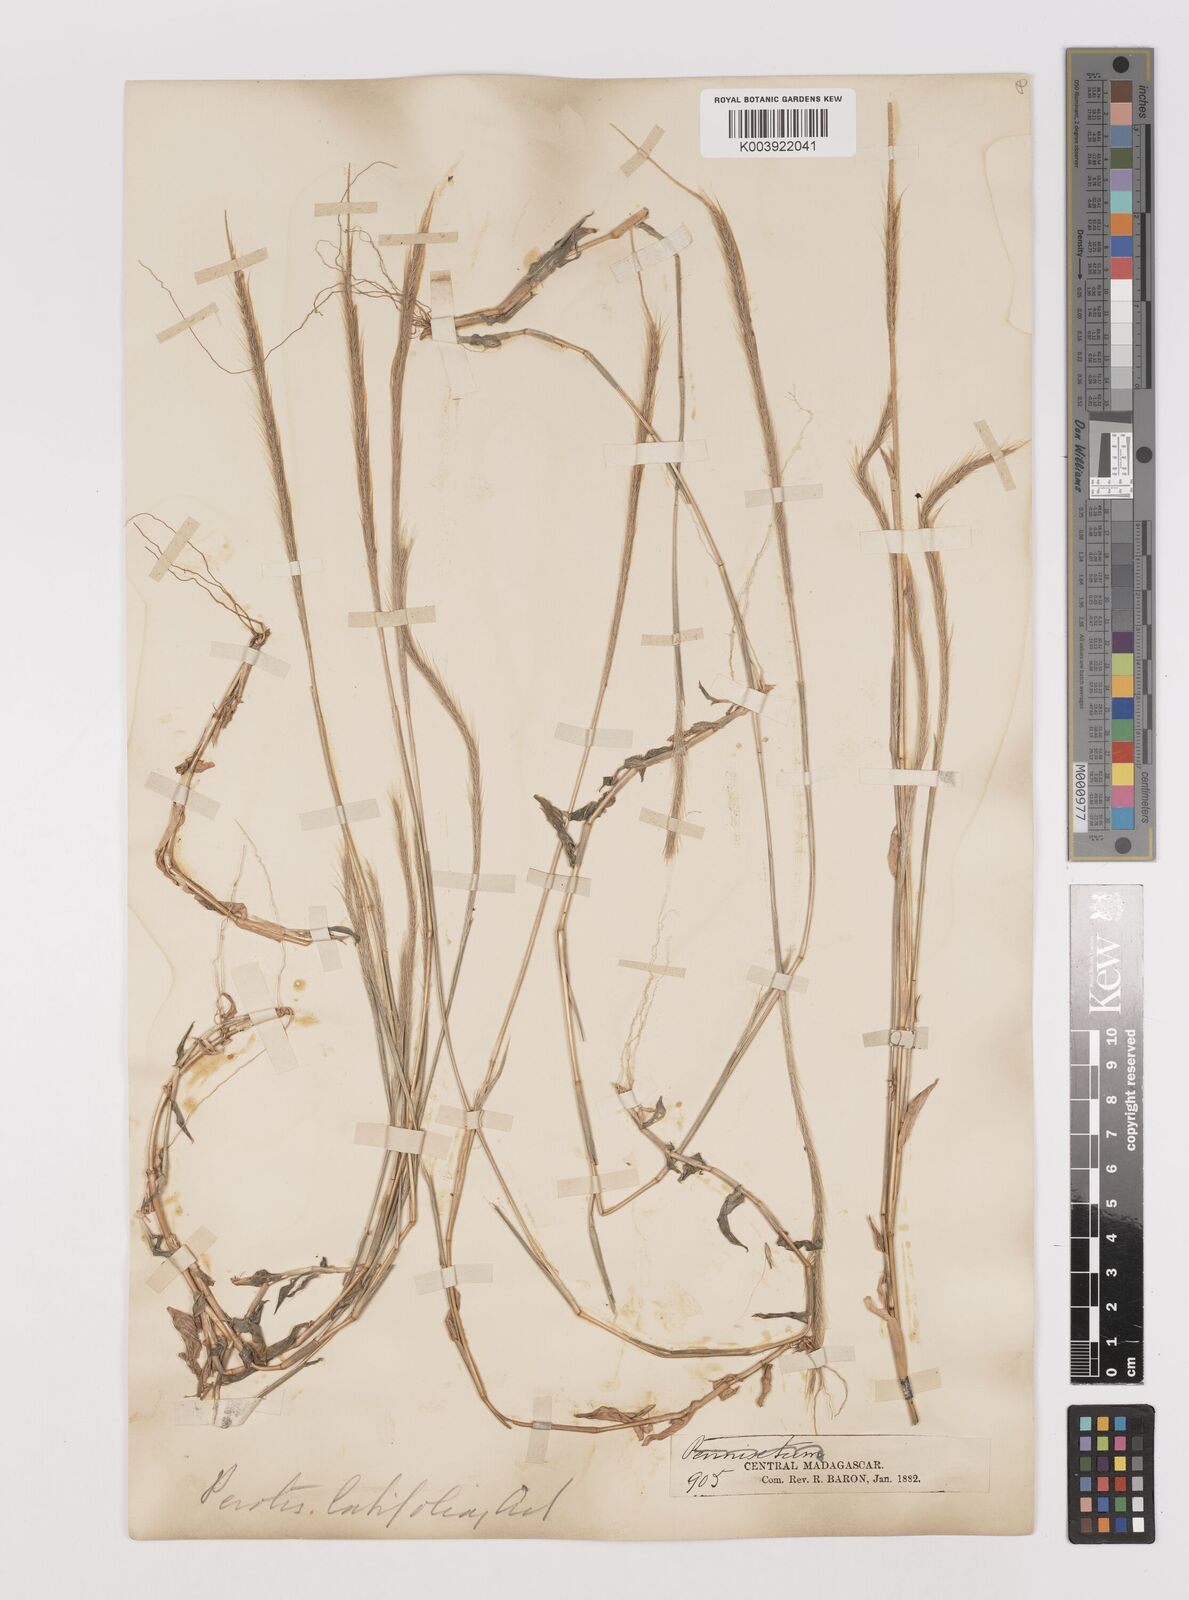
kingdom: Plantae
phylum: Tracheophyta
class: Liliopsida
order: Poales
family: Poaceae
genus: Perotis
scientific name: Perotis patens
